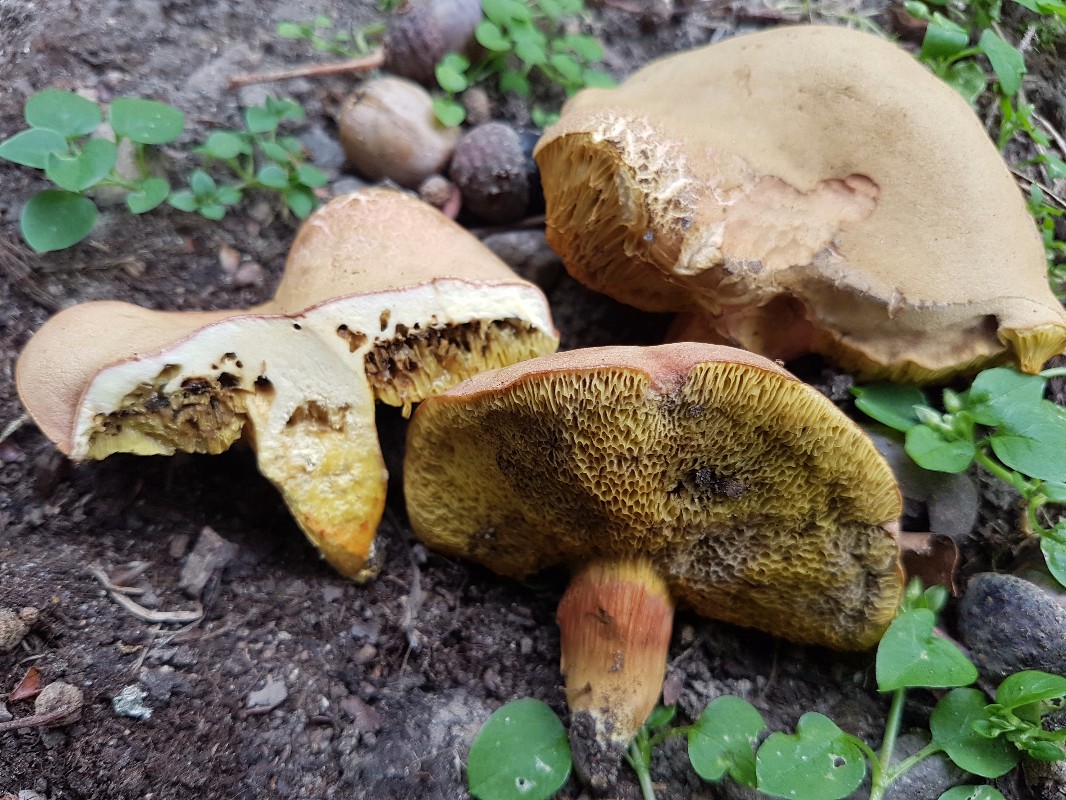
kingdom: Fungi
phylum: Basidiomycota
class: Agaricomycetes
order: Boletales
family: Boletaceae
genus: Hortiboletus
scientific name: Hortiboletus engelii
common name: fersken-rørhat
